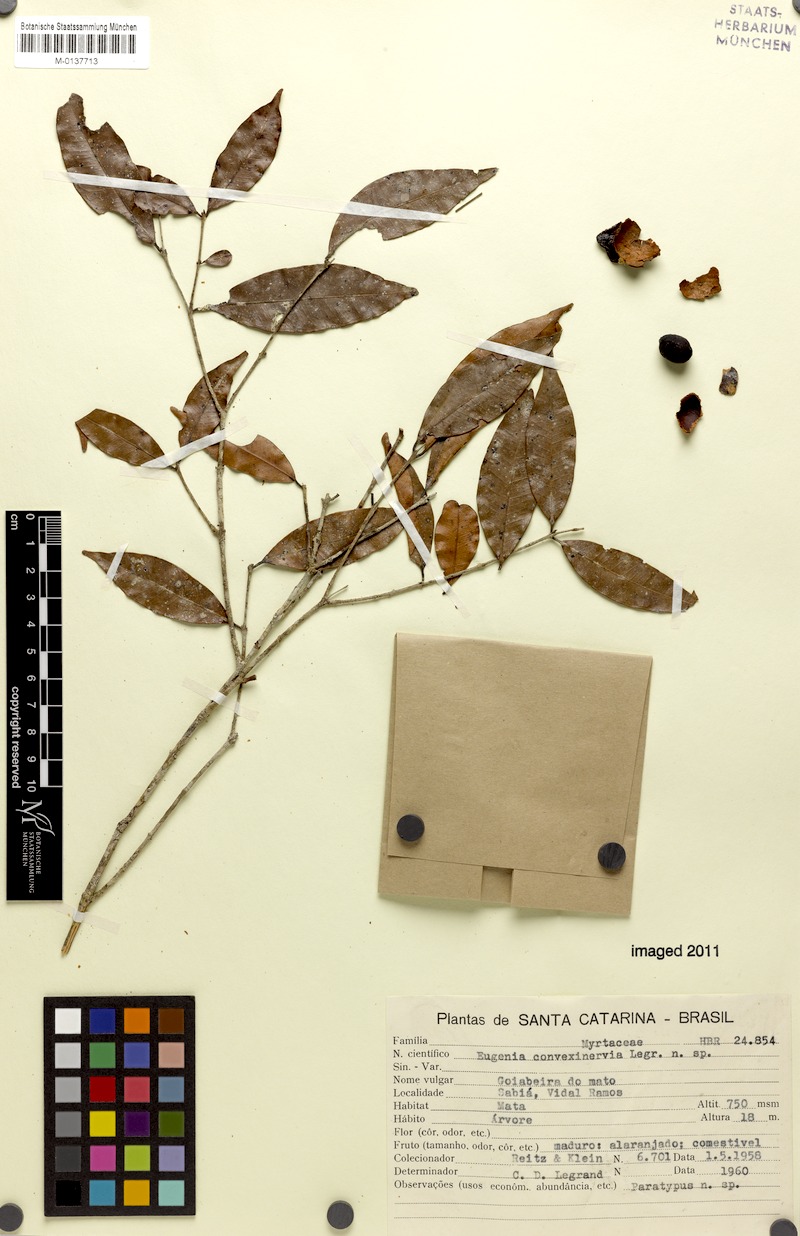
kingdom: Plantae
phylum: Tracheophyta
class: Magnoliopsida
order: Myrtales
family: Myrtaceae
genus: Eugenia
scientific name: Eugenia convexinervia
